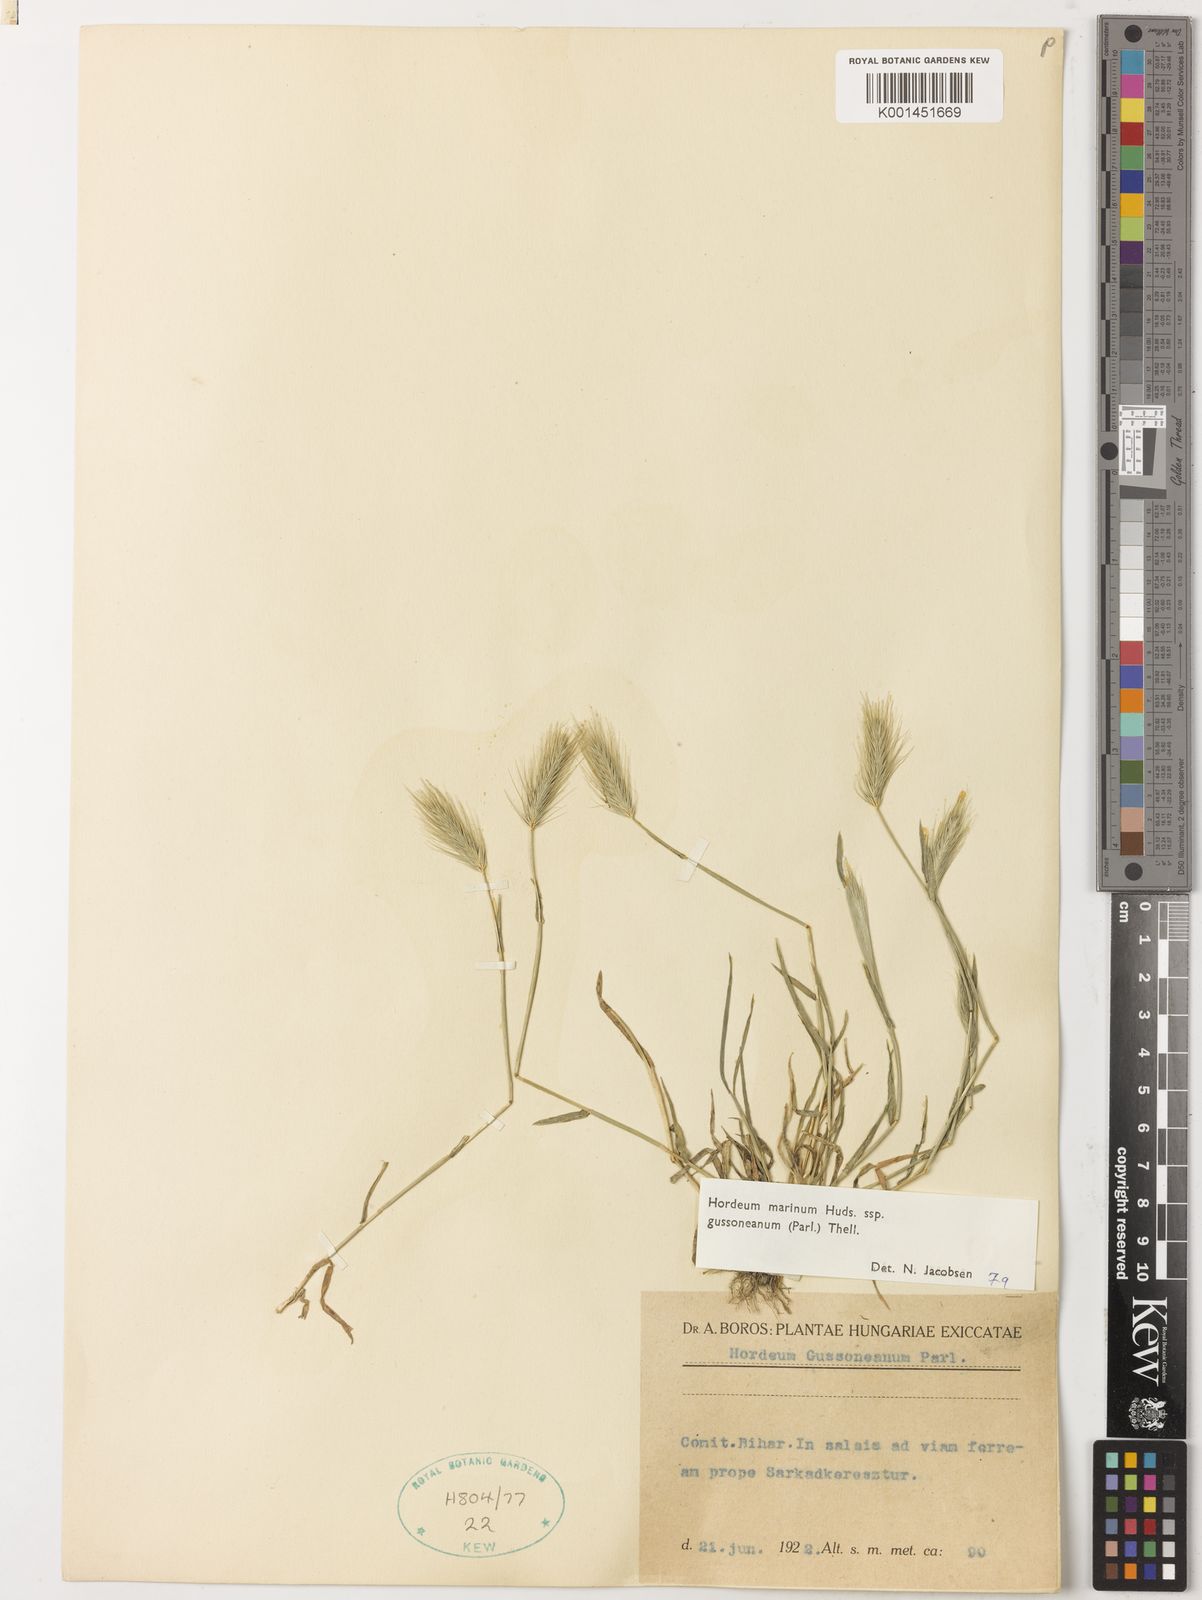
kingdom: Plantae
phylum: Tracheophyta
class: Liliopsida
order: Poales
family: Poaceae
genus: Hordeum
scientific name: Hordeum marinum
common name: Sea barley
